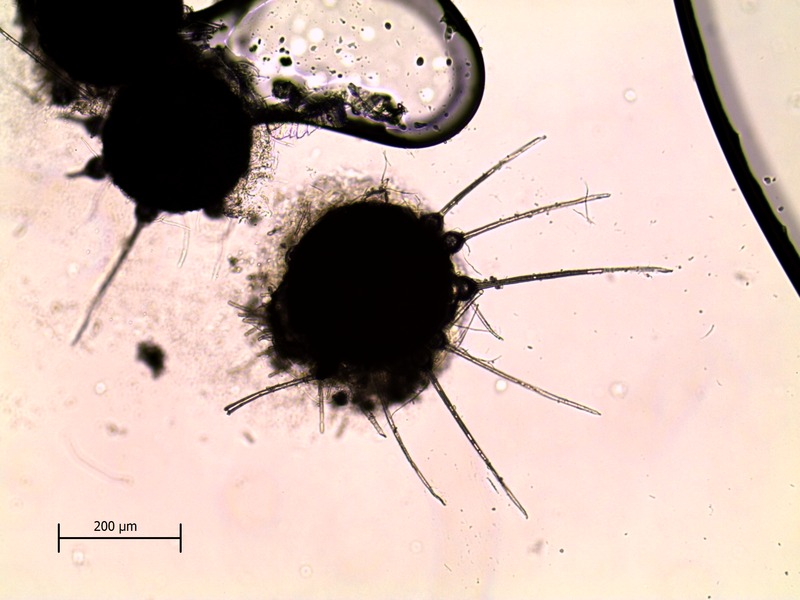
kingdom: Fungi
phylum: Ascomycota
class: Leotiomycetes
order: Helotiales
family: Erysiphaceae
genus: Phyllactinia
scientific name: Phyllactinia fraxini
